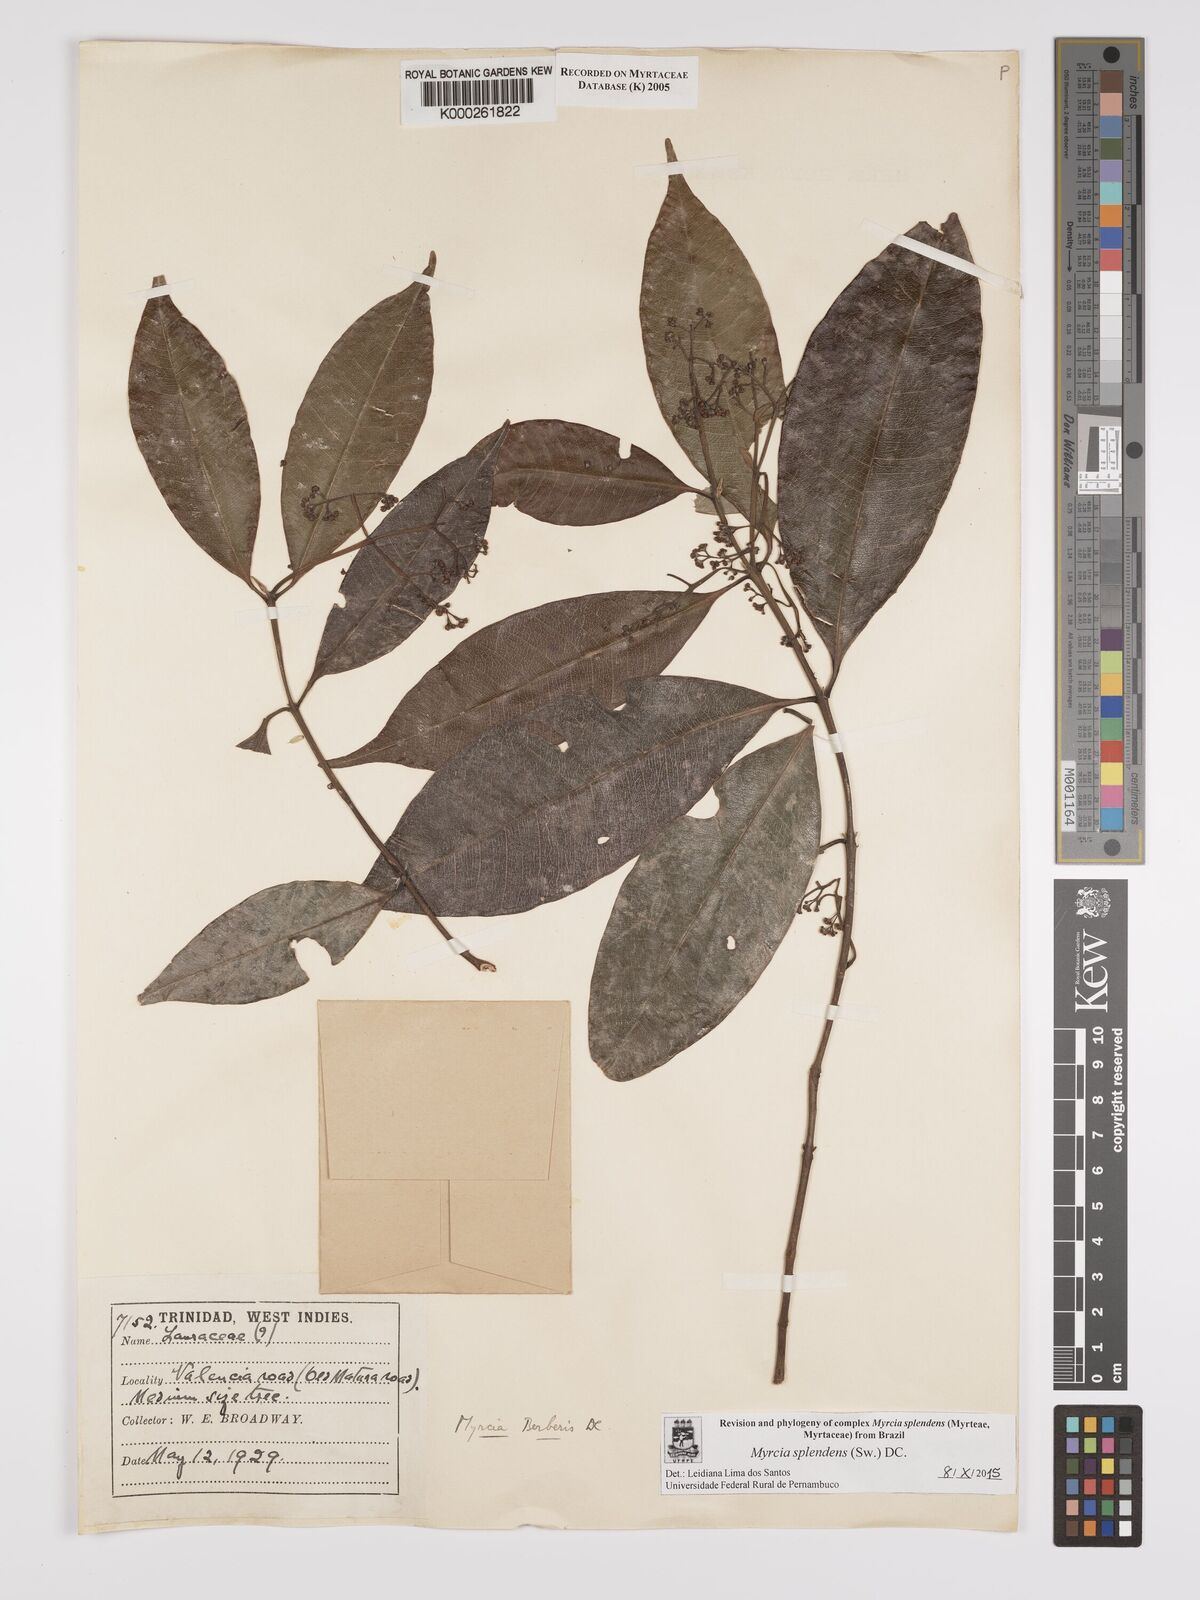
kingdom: Plantae
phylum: Tracheophyta
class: Magnoliopsida
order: Myrtales
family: Myrtaceae
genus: Myrcia
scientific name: Myrcia splendens
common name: Surinam cherry
